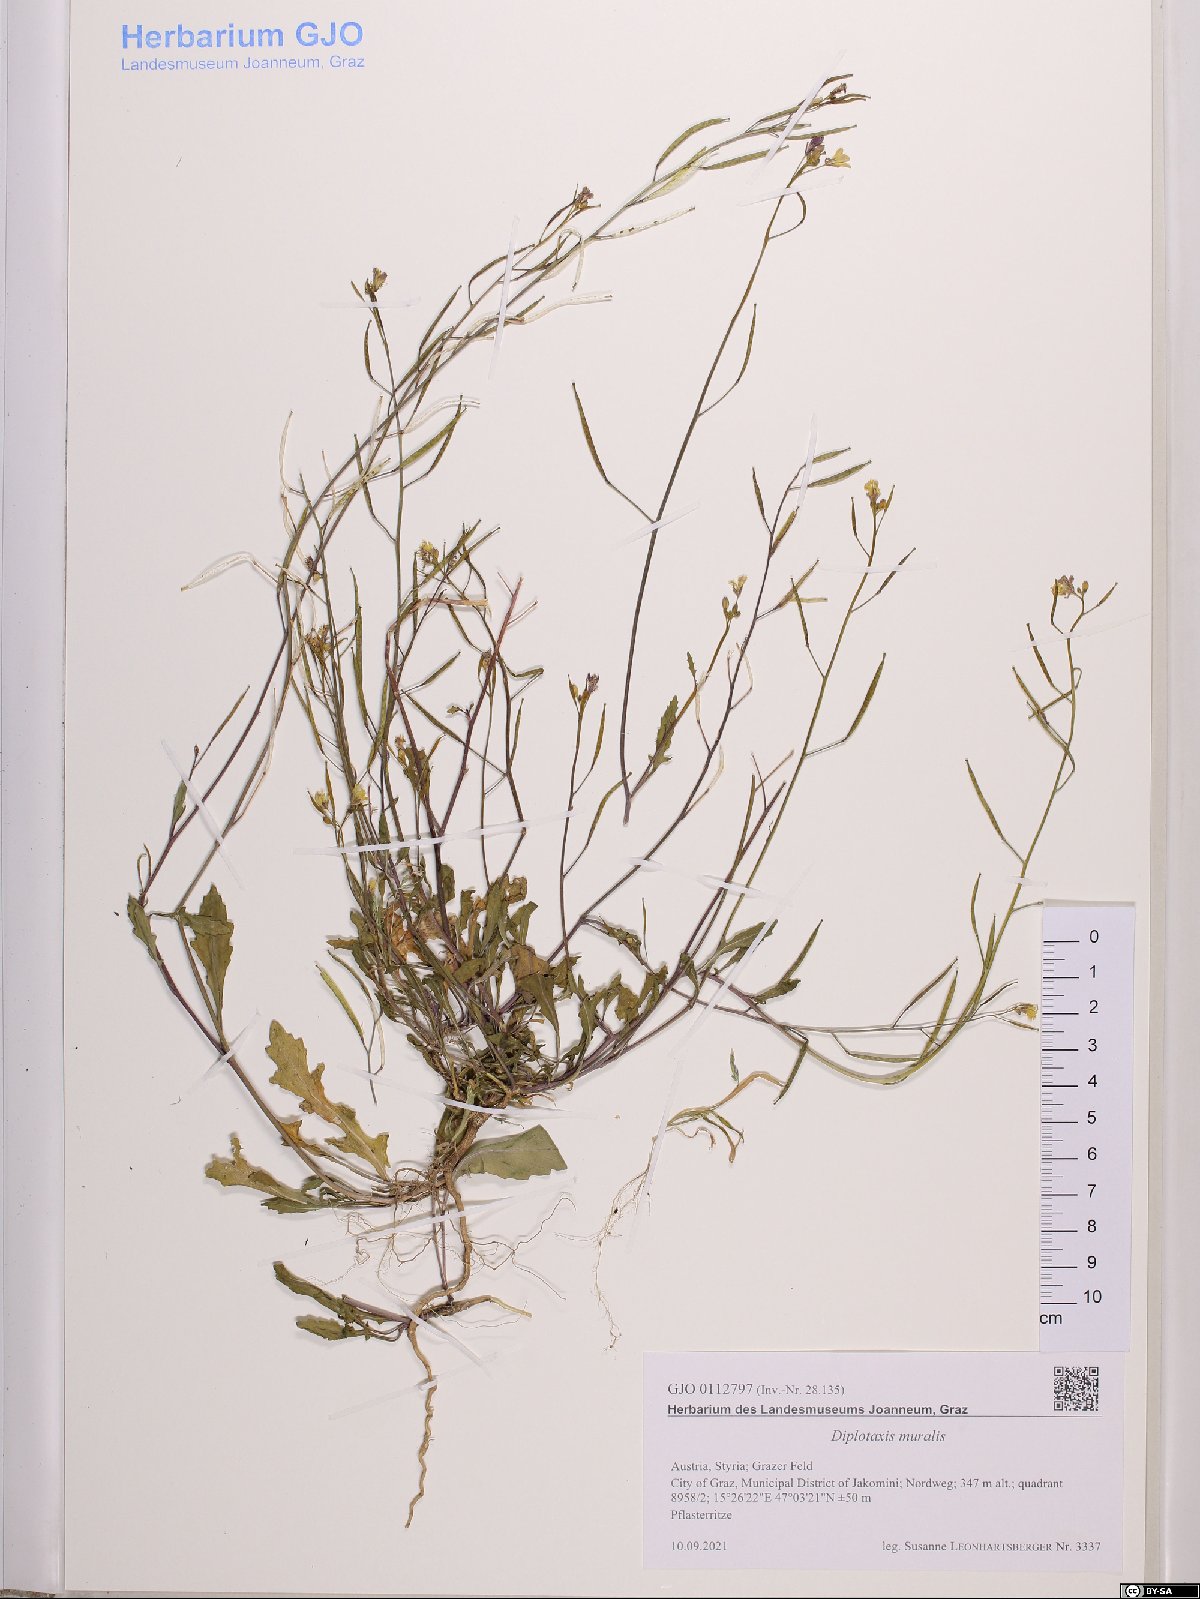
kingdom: Plantae
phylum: Tracheophyta
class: Magnoliopsida
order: Brassicales
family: Brassicaceae
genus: Diplotaxis
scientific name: Diplotaxis muralis
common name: Annual wall-rocket
